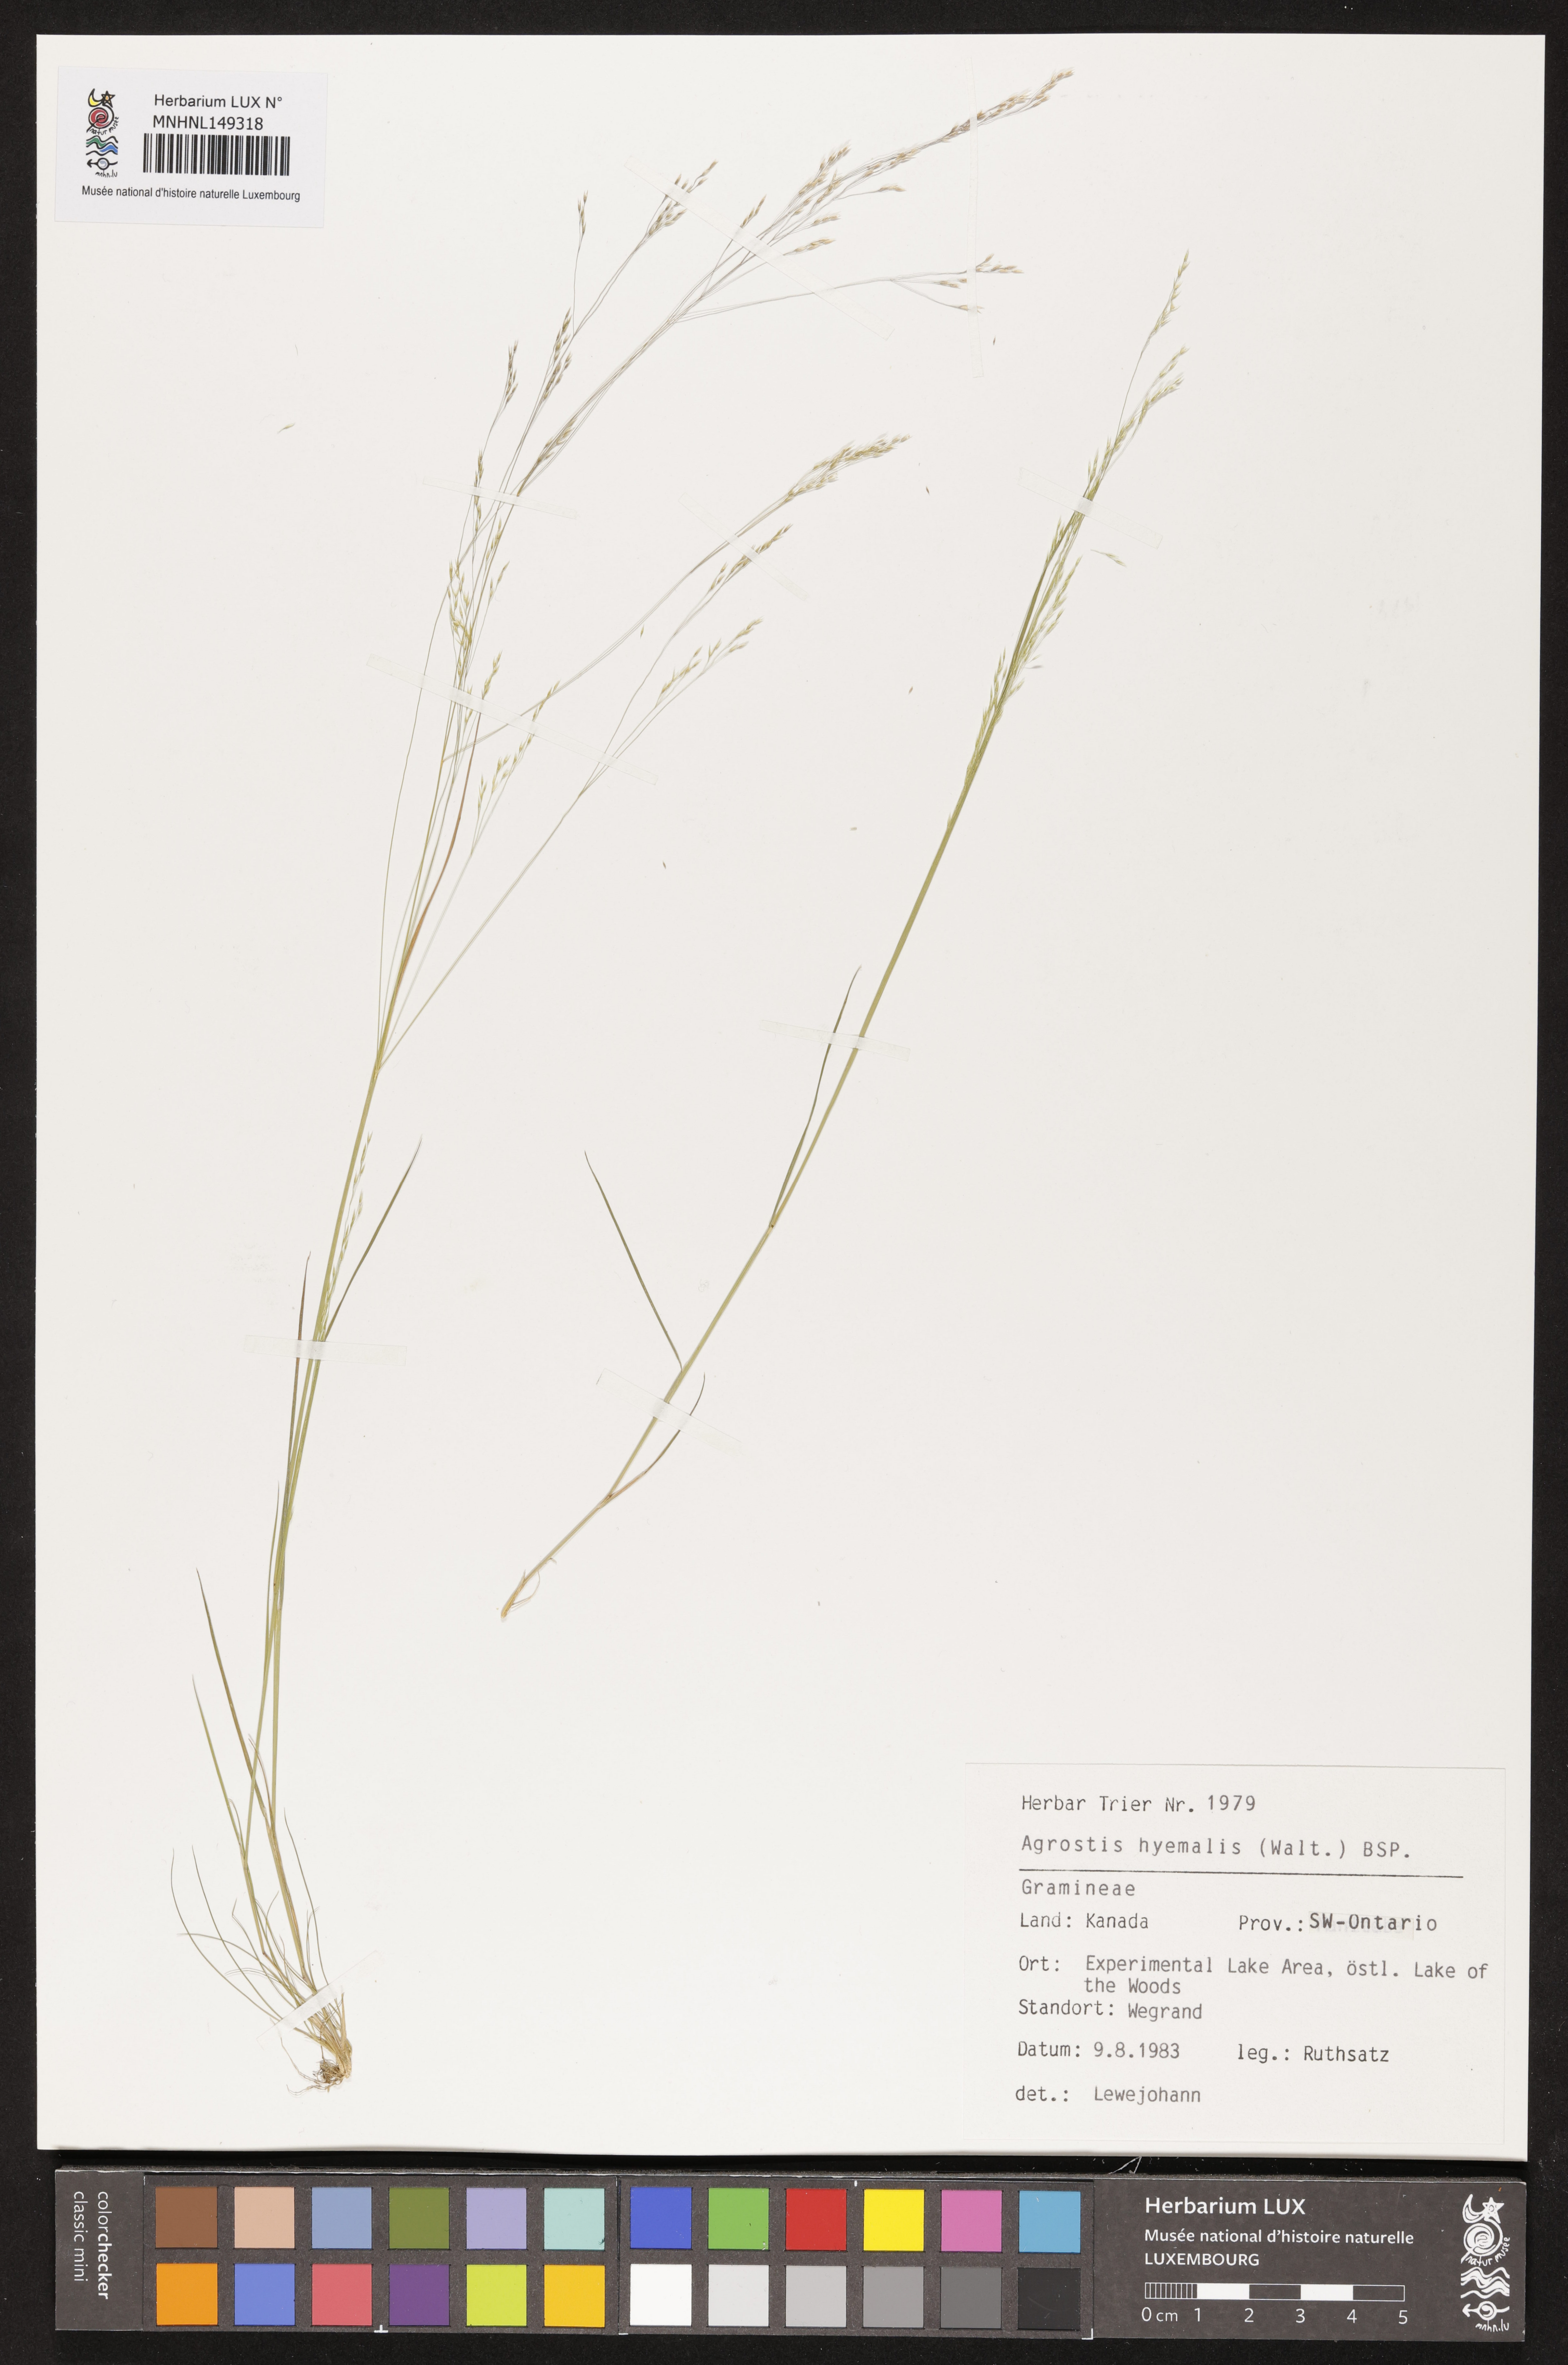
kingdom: Plantae
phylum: Tracheophyta
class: Liliopsida
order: Poales
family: Poaceae
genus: Agrostis
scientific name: Agrostis hyemalis
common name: Small bent
